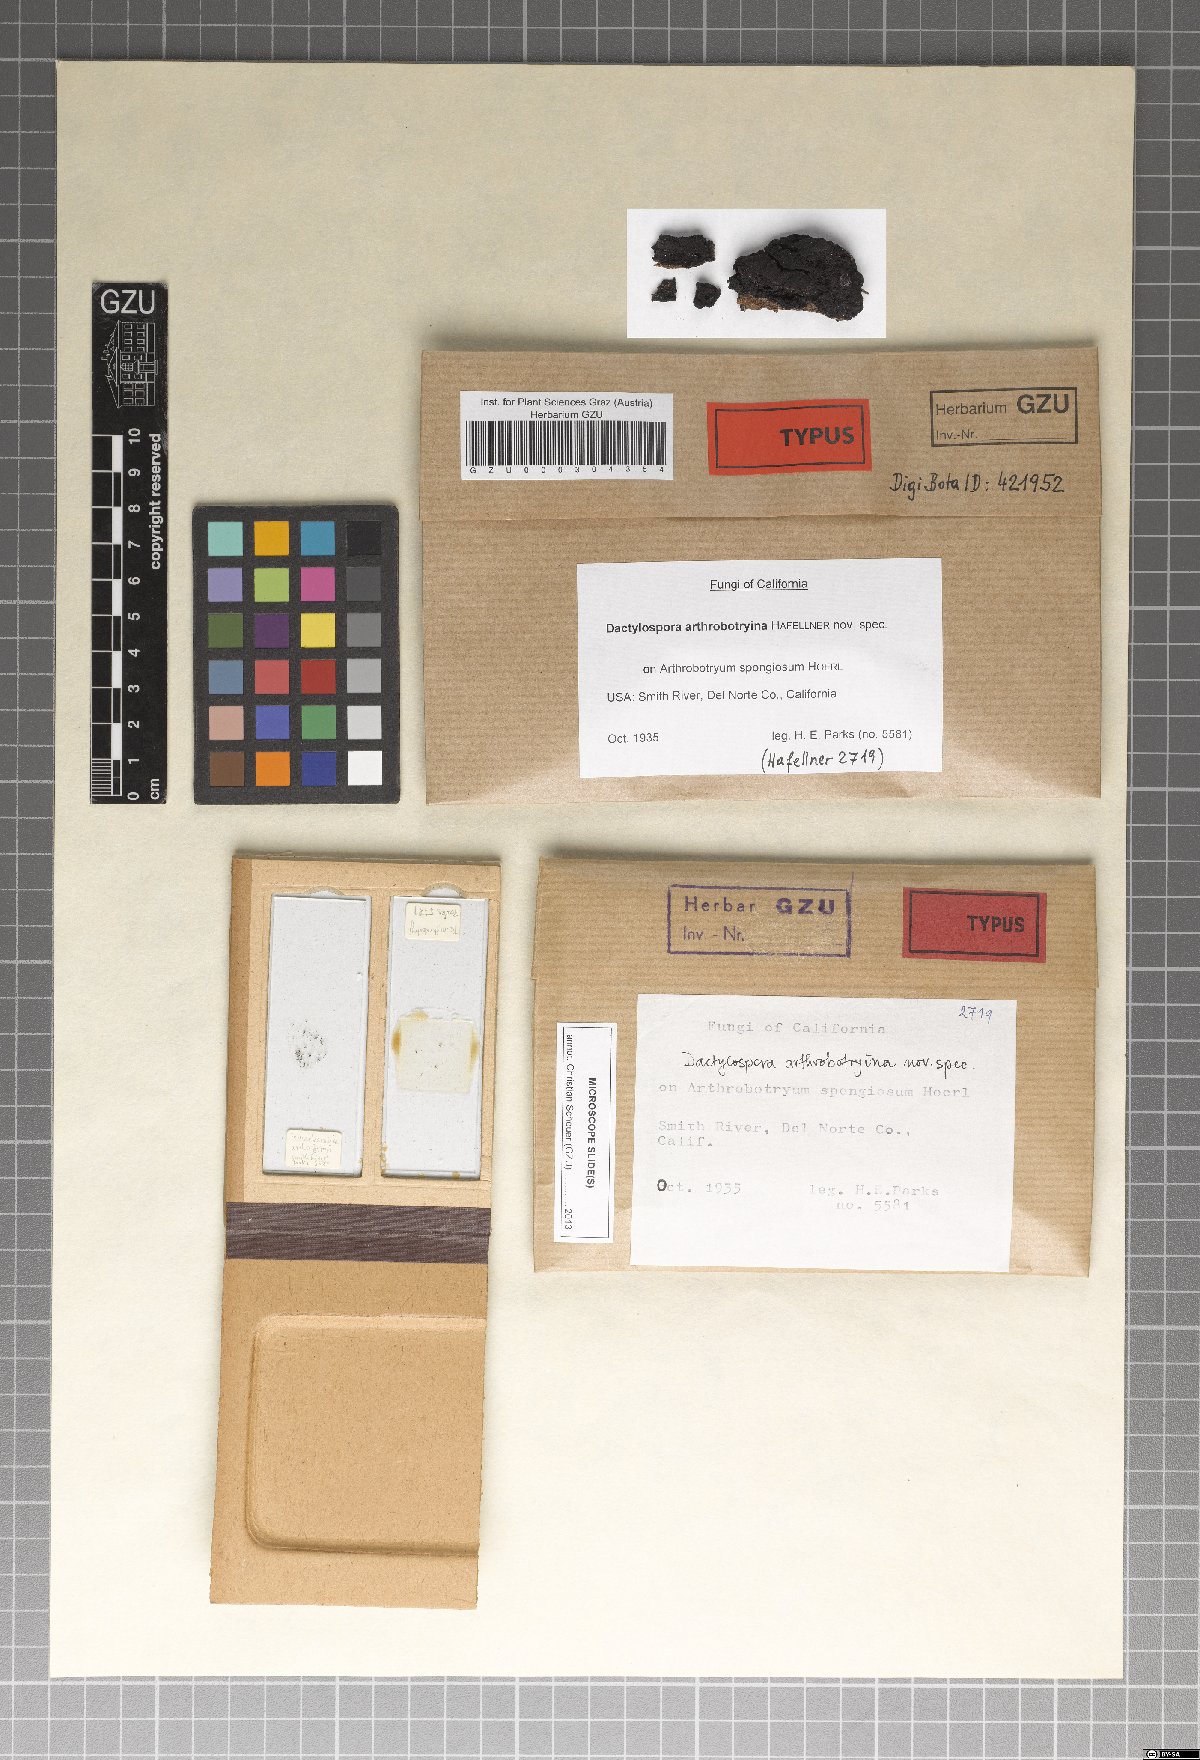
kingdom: Fungi
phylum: Ascomycota
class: Eurotiomycetes
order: Sclerococcales
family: Sclerococcaceae
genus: Sclerococcum
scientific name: Sclerococcum arthrobotryinum
